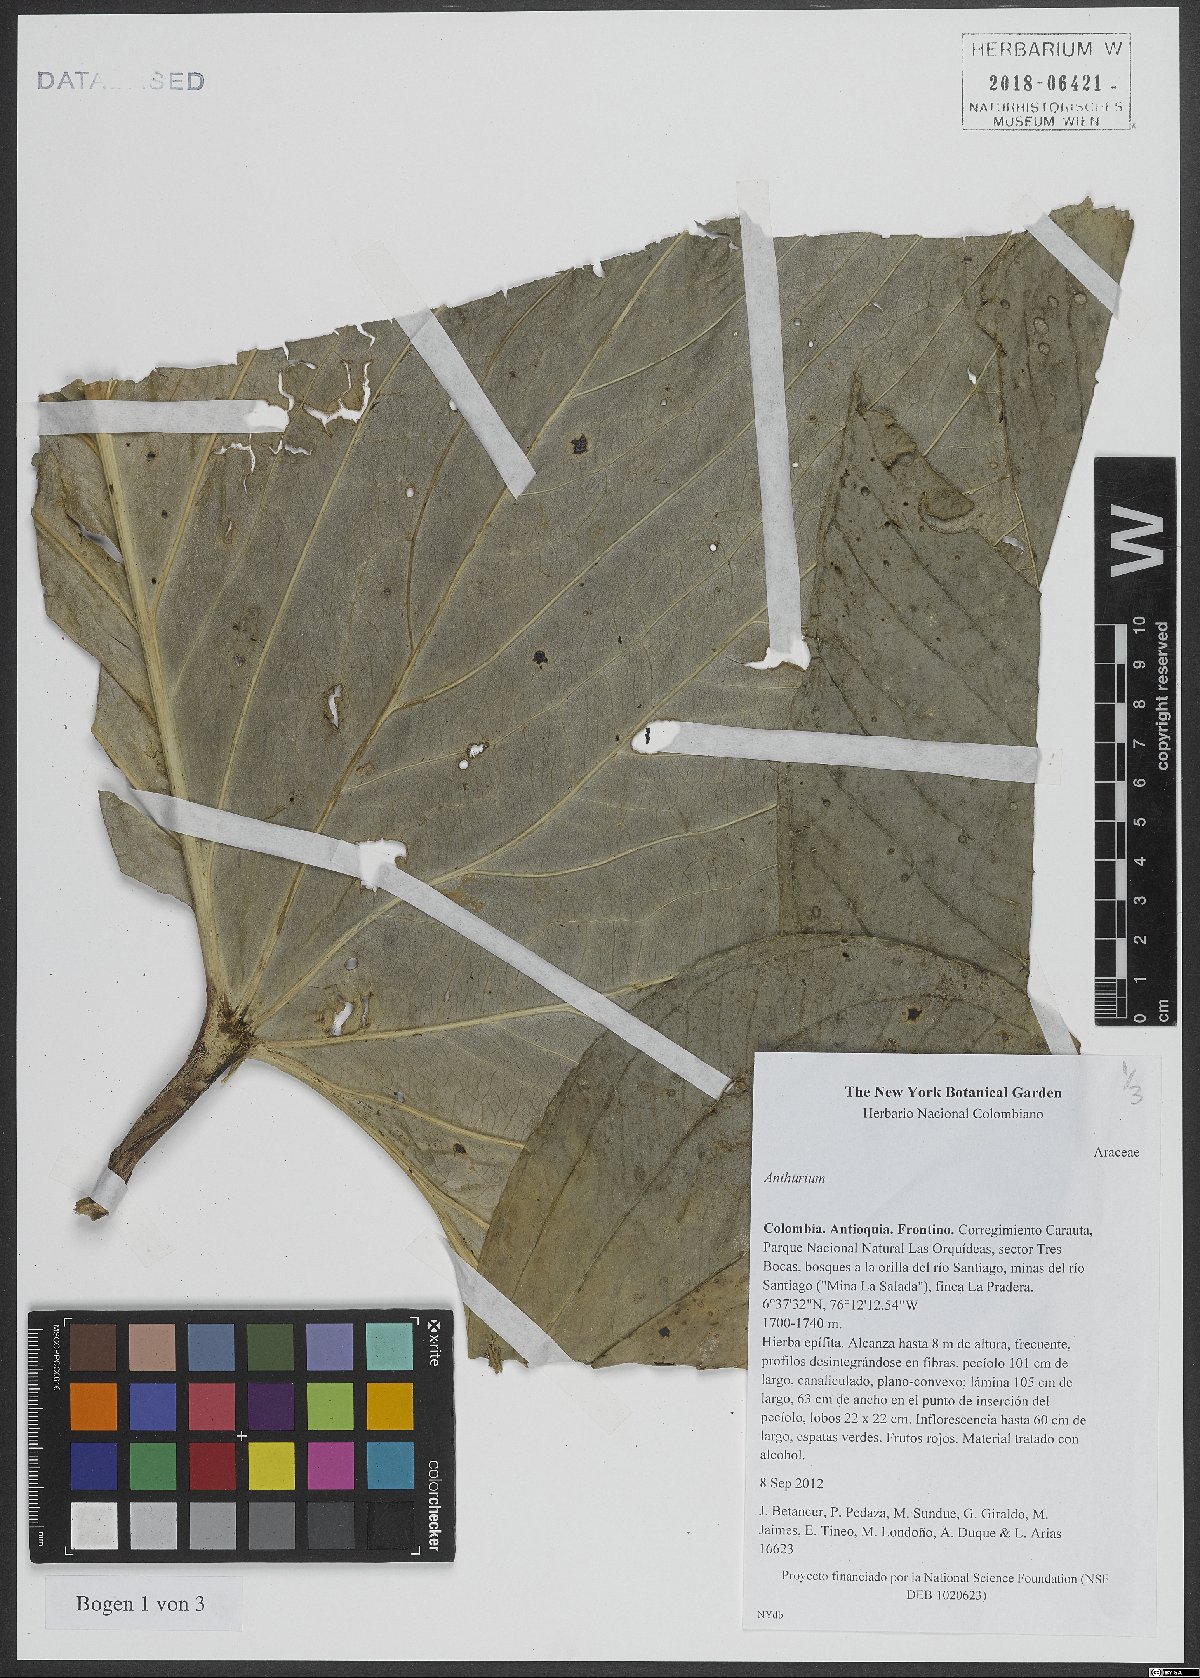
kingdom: Plantae
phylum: Tracheophyta
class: Liliopsida
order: Alismatales
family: Araceae
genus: Anthurium
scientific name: Anthurium
